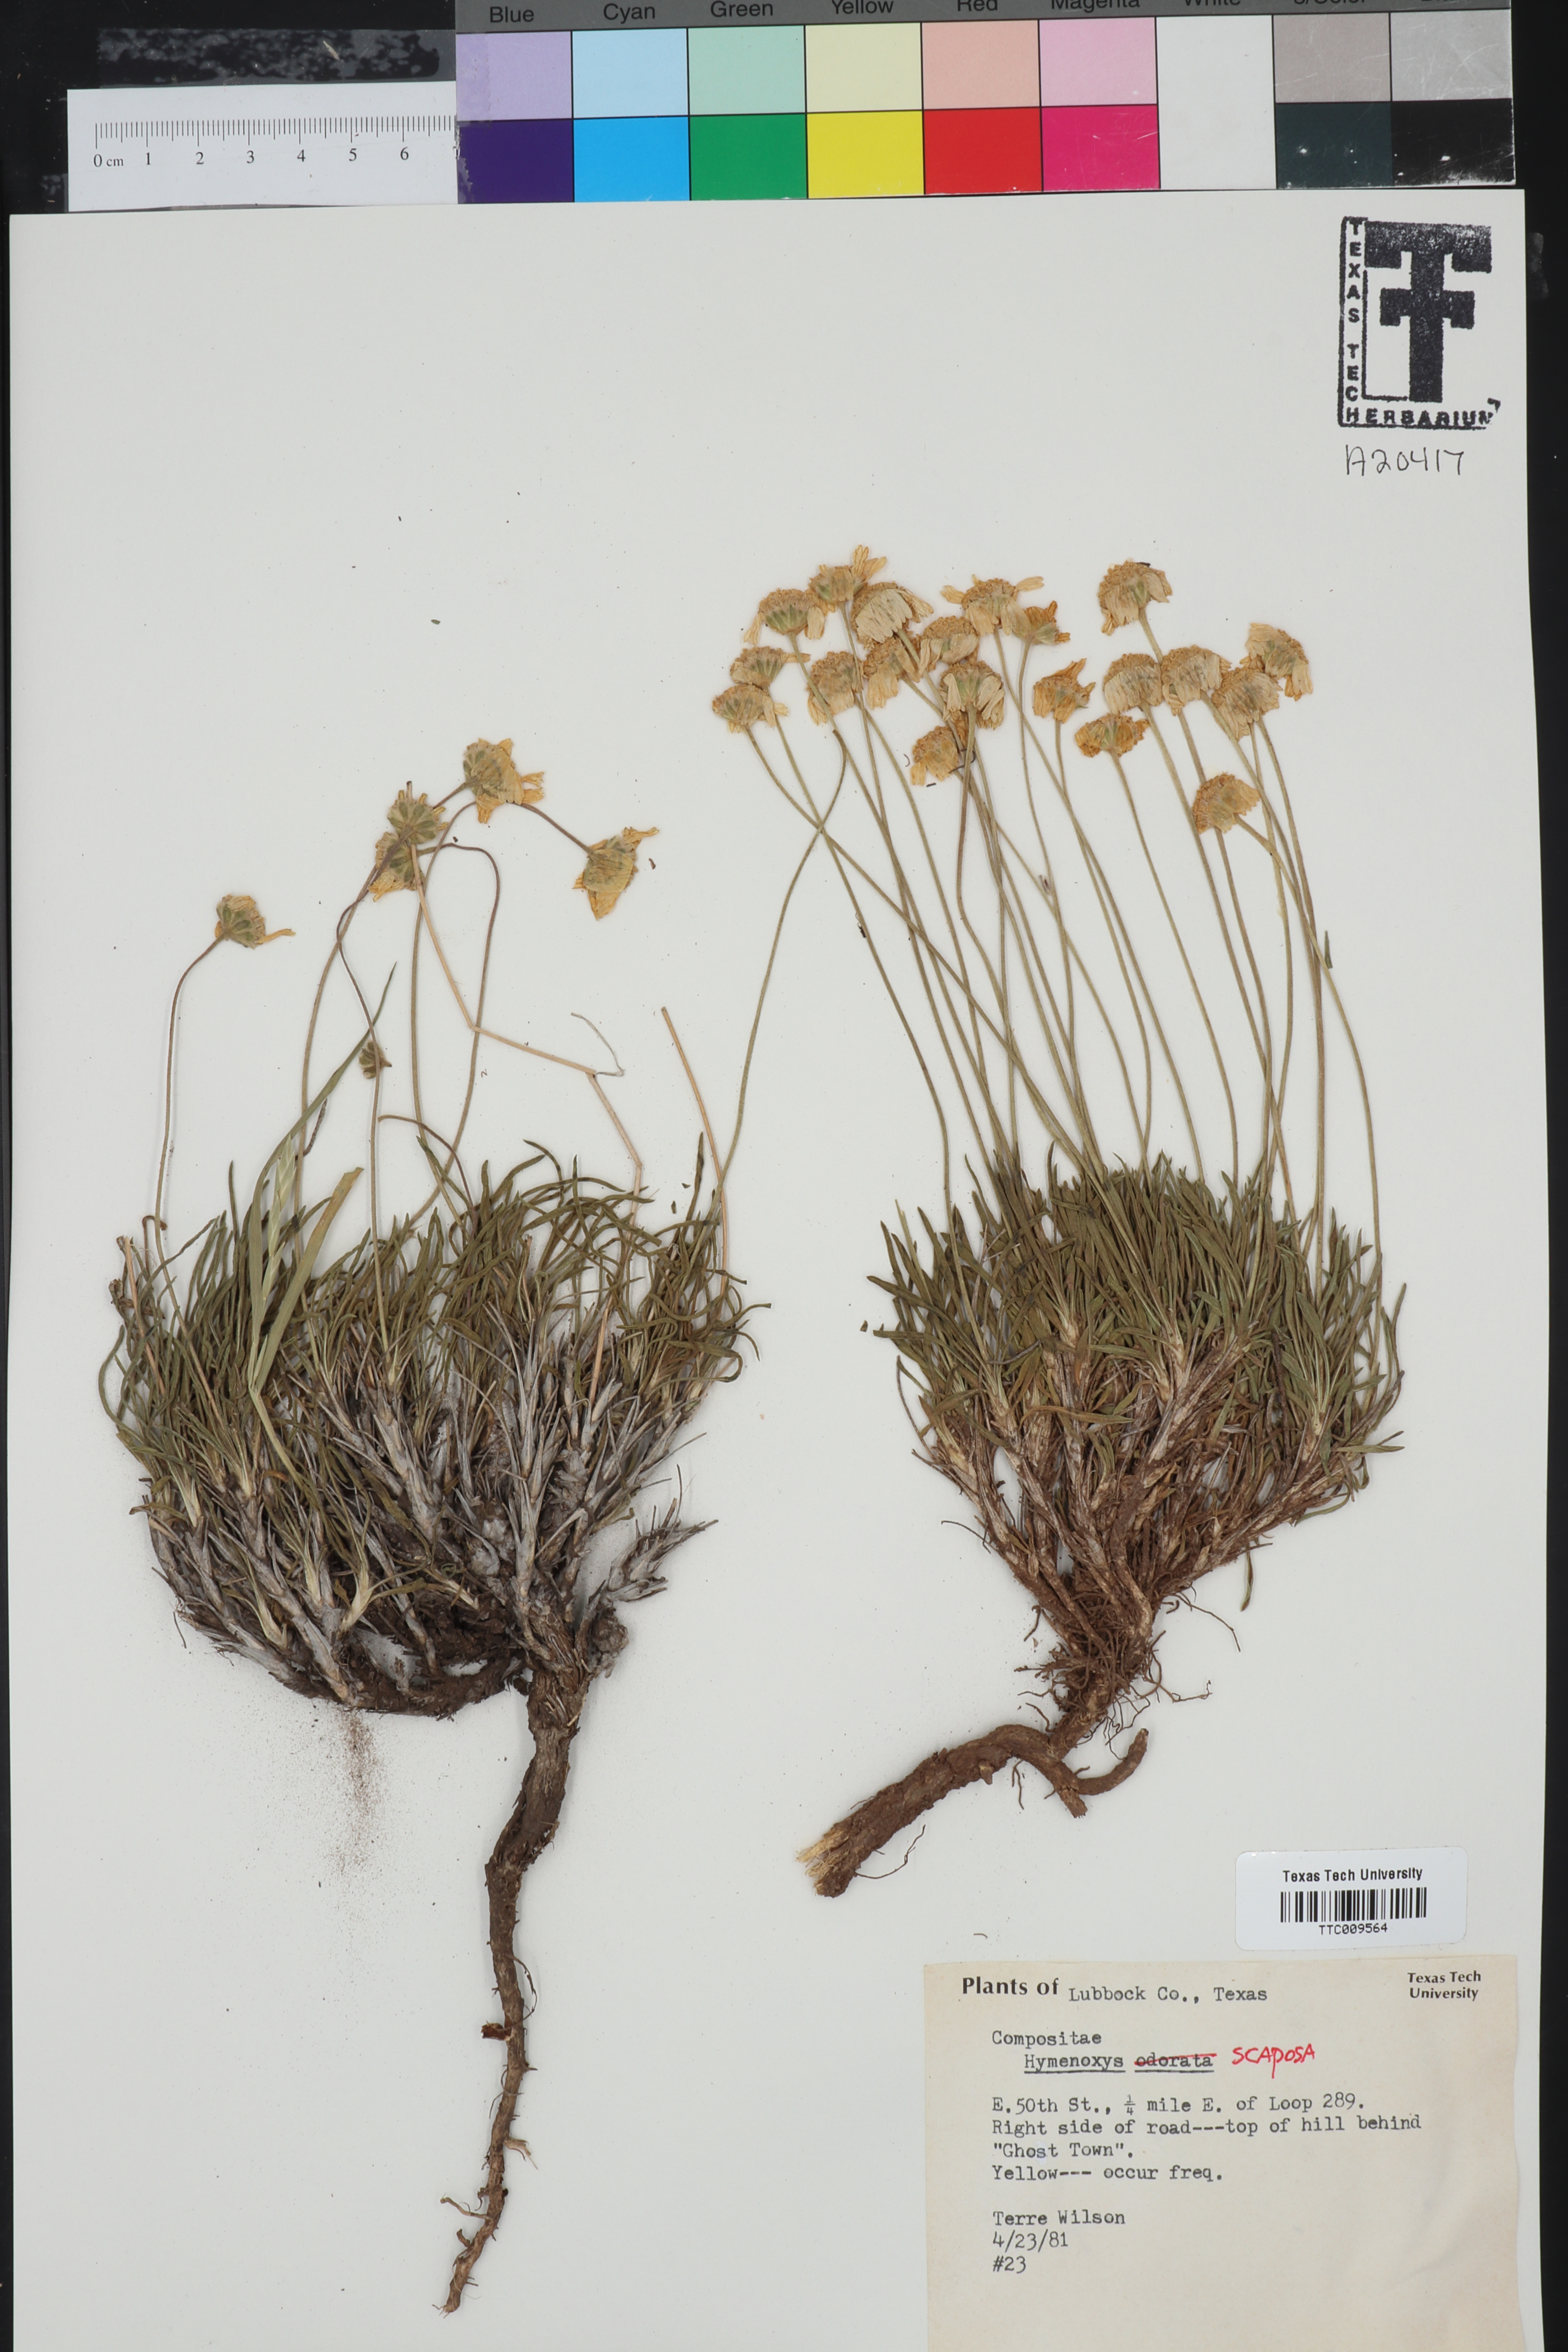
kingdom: Plantae
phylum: Tracheophyta
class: Magnoliopsida
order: Asterales
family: Asteraceae
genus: Tetraneuris
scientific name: Tetraneuris scaposa
